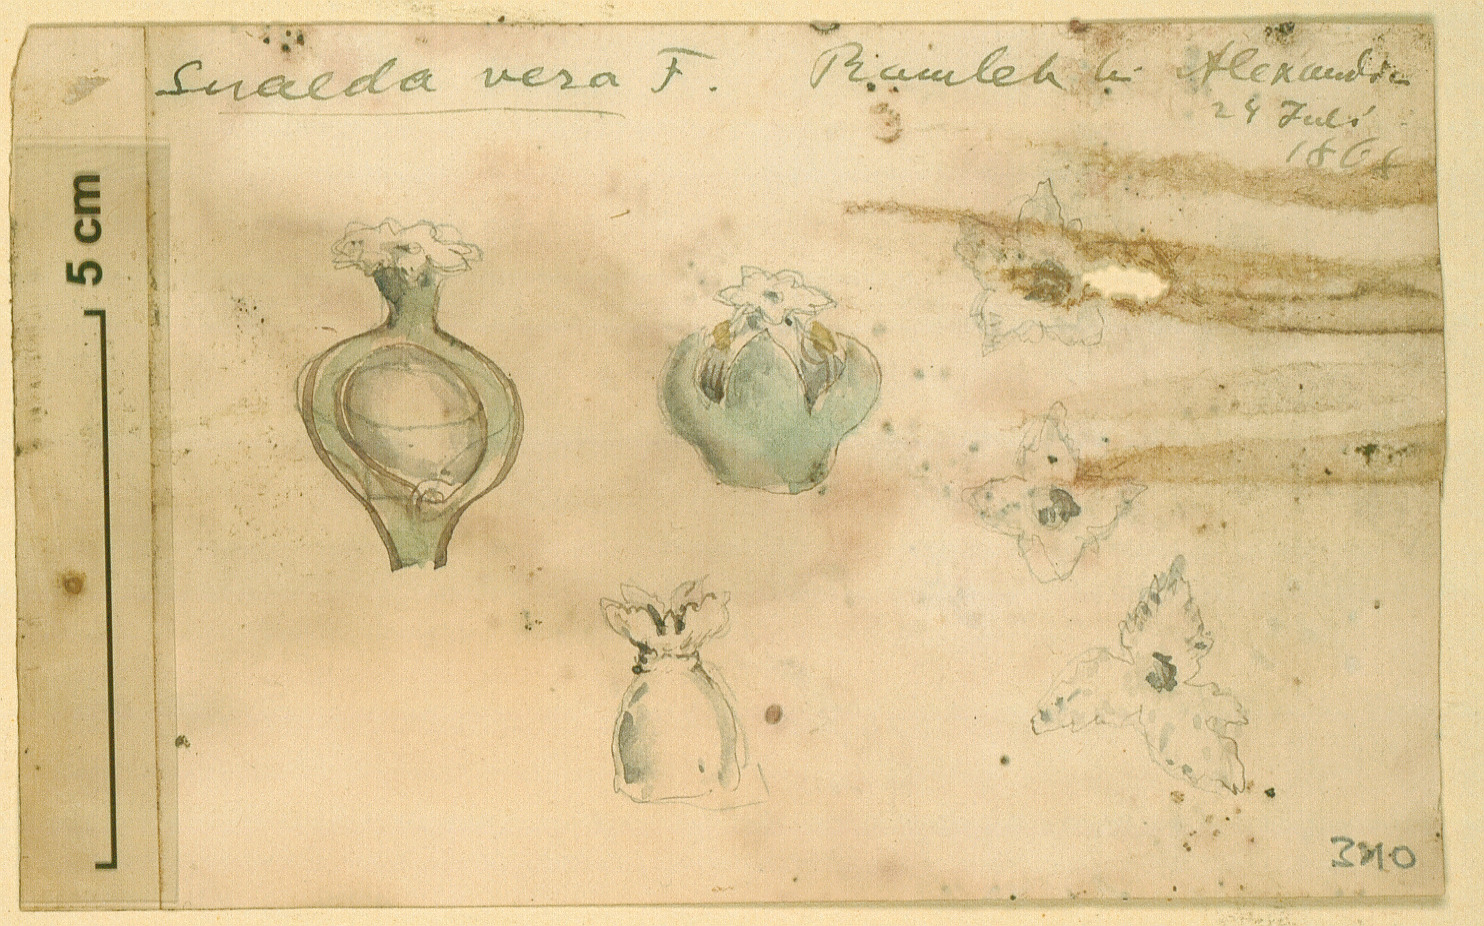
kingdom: Plantae
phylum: Tracheophyta
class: Magnoliopsida
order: Caryophyllales
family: Amaranthaceae
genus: Suaeda
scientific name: Suaeda vera
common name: Shrubby sea-blite
